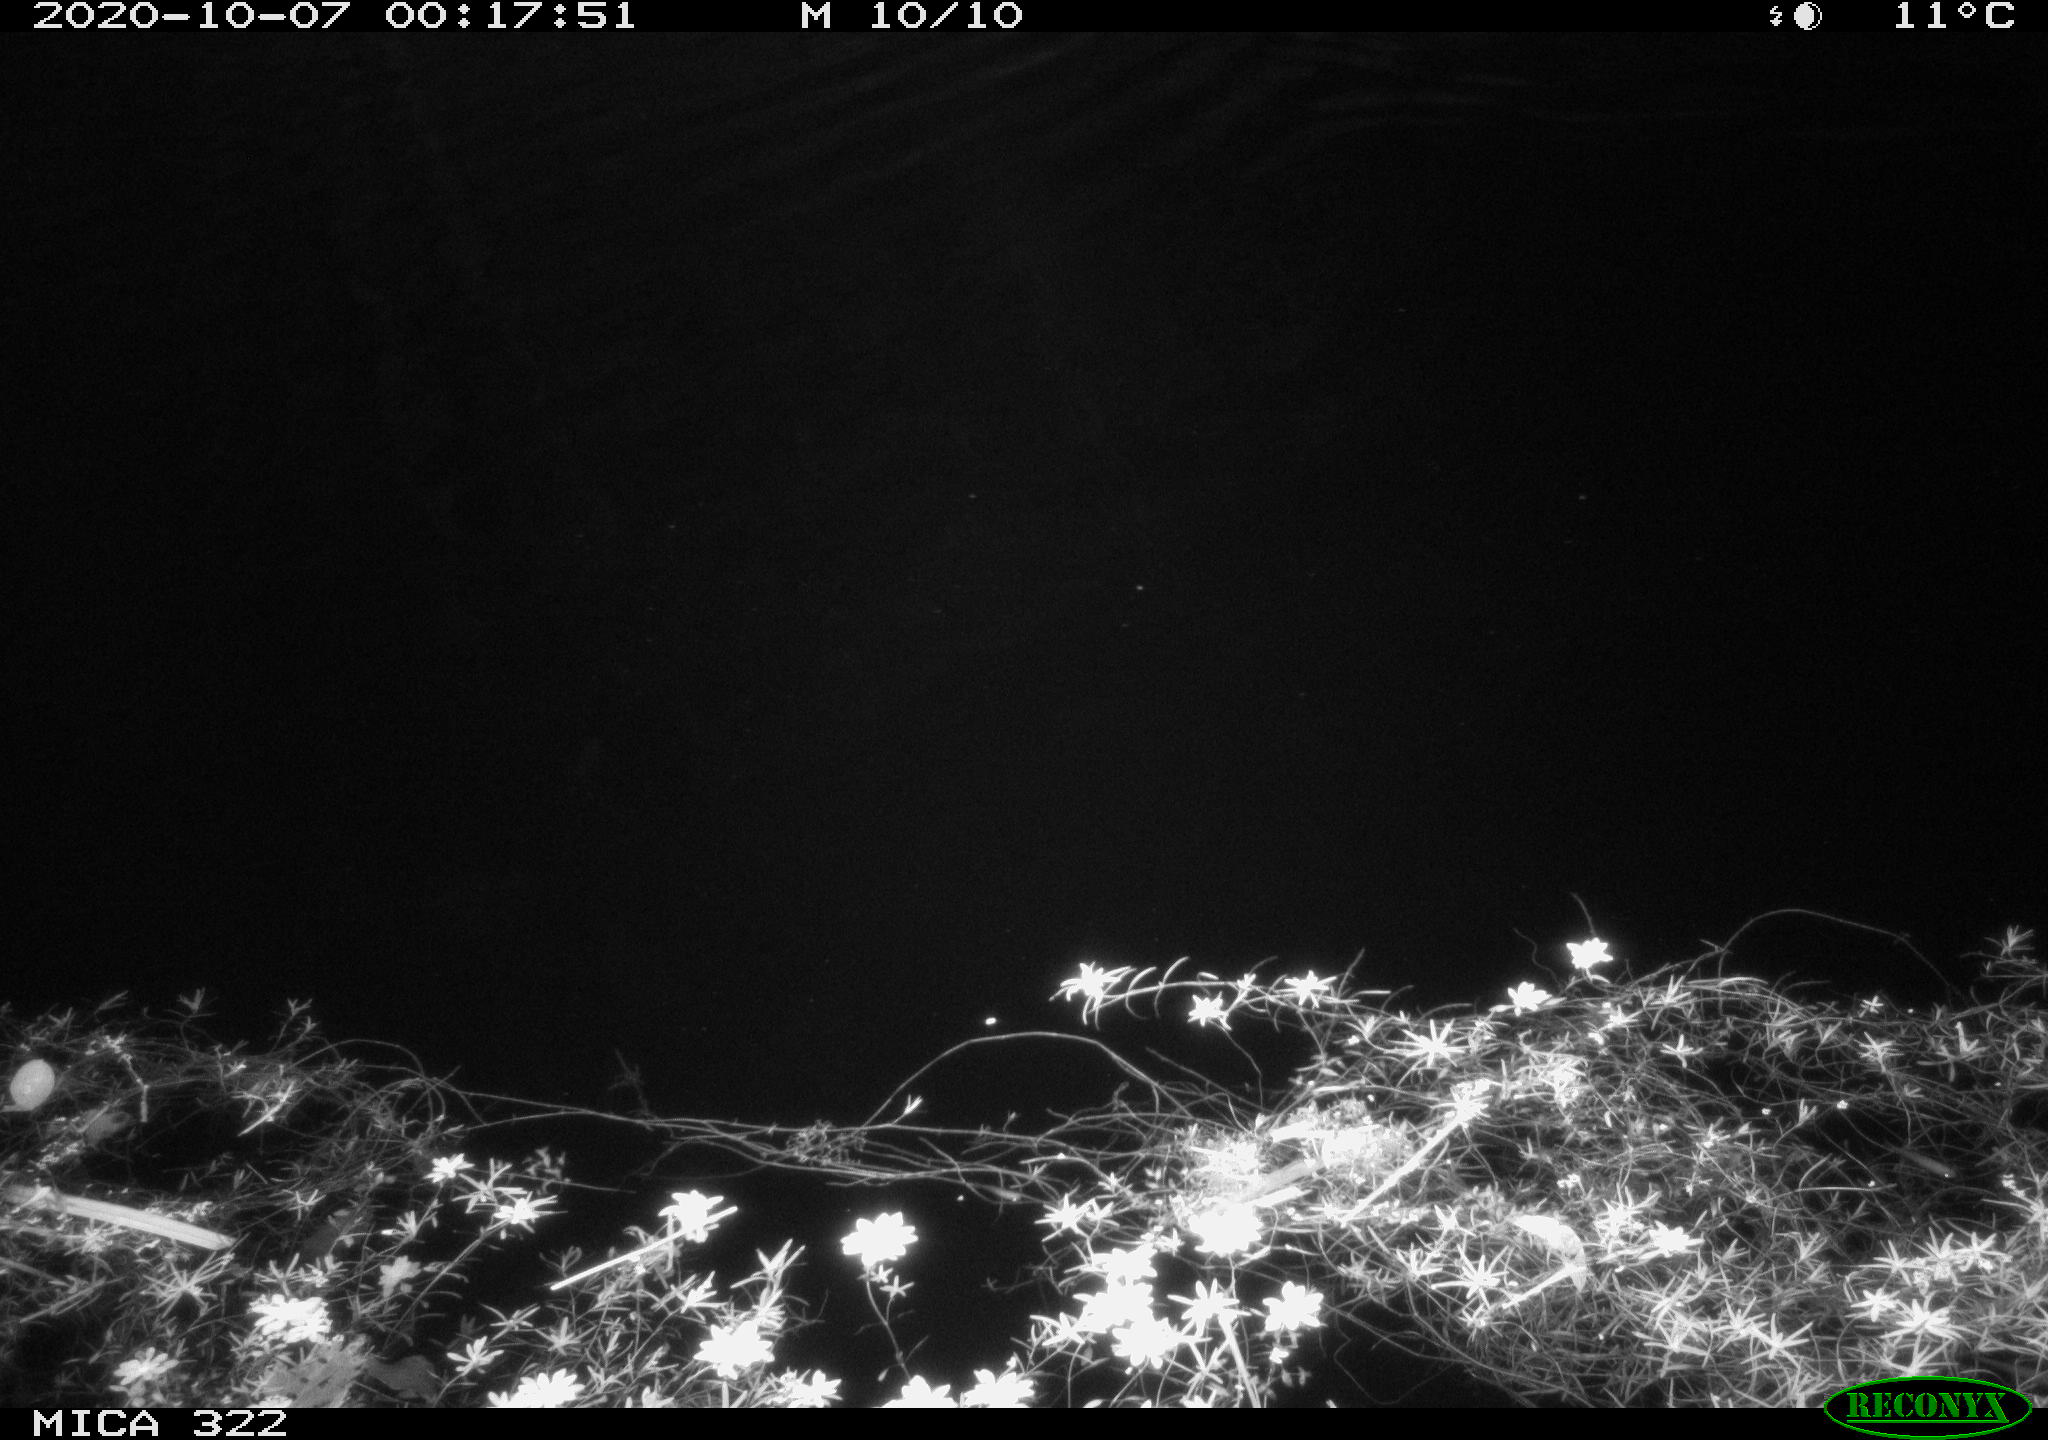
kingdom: Animalia
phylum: Chordata
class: Mammalia
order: Rodentia
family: Muridae
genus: Rattus
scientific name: Rattus norvegicus
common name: Brown rat
